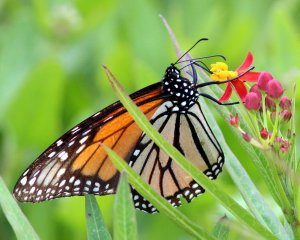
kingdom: Animalia
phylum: Arthropoda
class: Insecta
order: Lepidoptera
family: Nymphalidae
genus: Danaus
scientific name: Danaus plexippus
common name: Monarch
